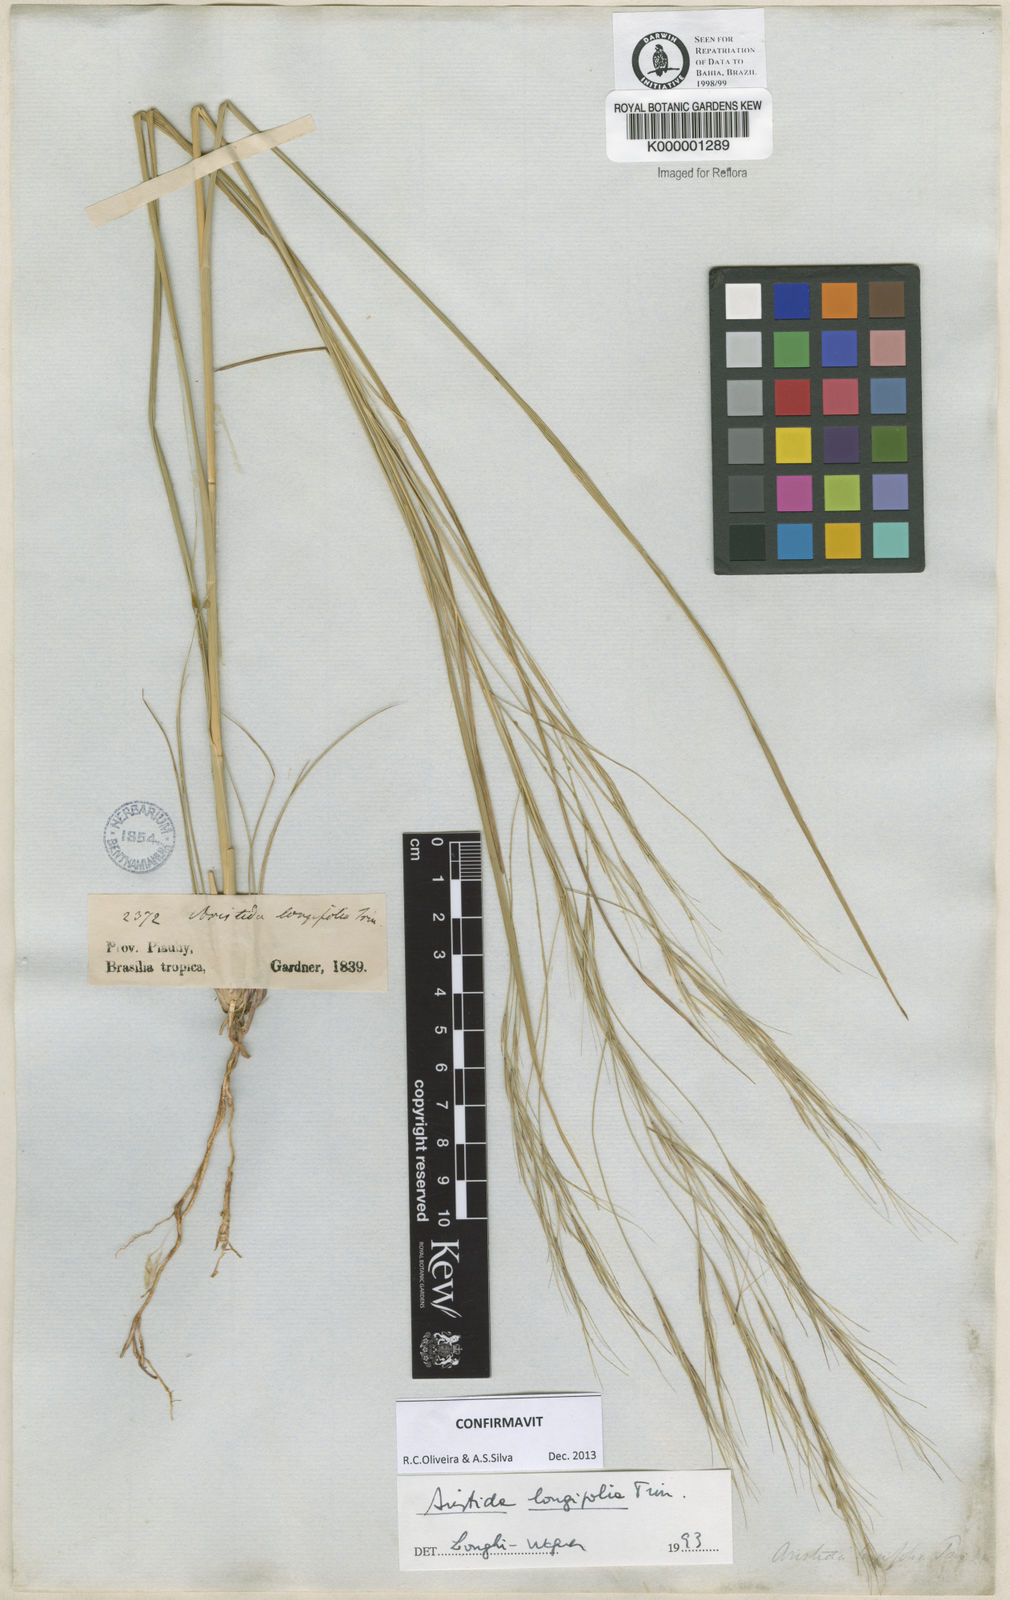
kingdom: Plantae
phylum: Tracheophyta
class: Liliopsida
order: Poales
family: Poaceae
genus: Aristida
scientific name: Aristida longifolia
